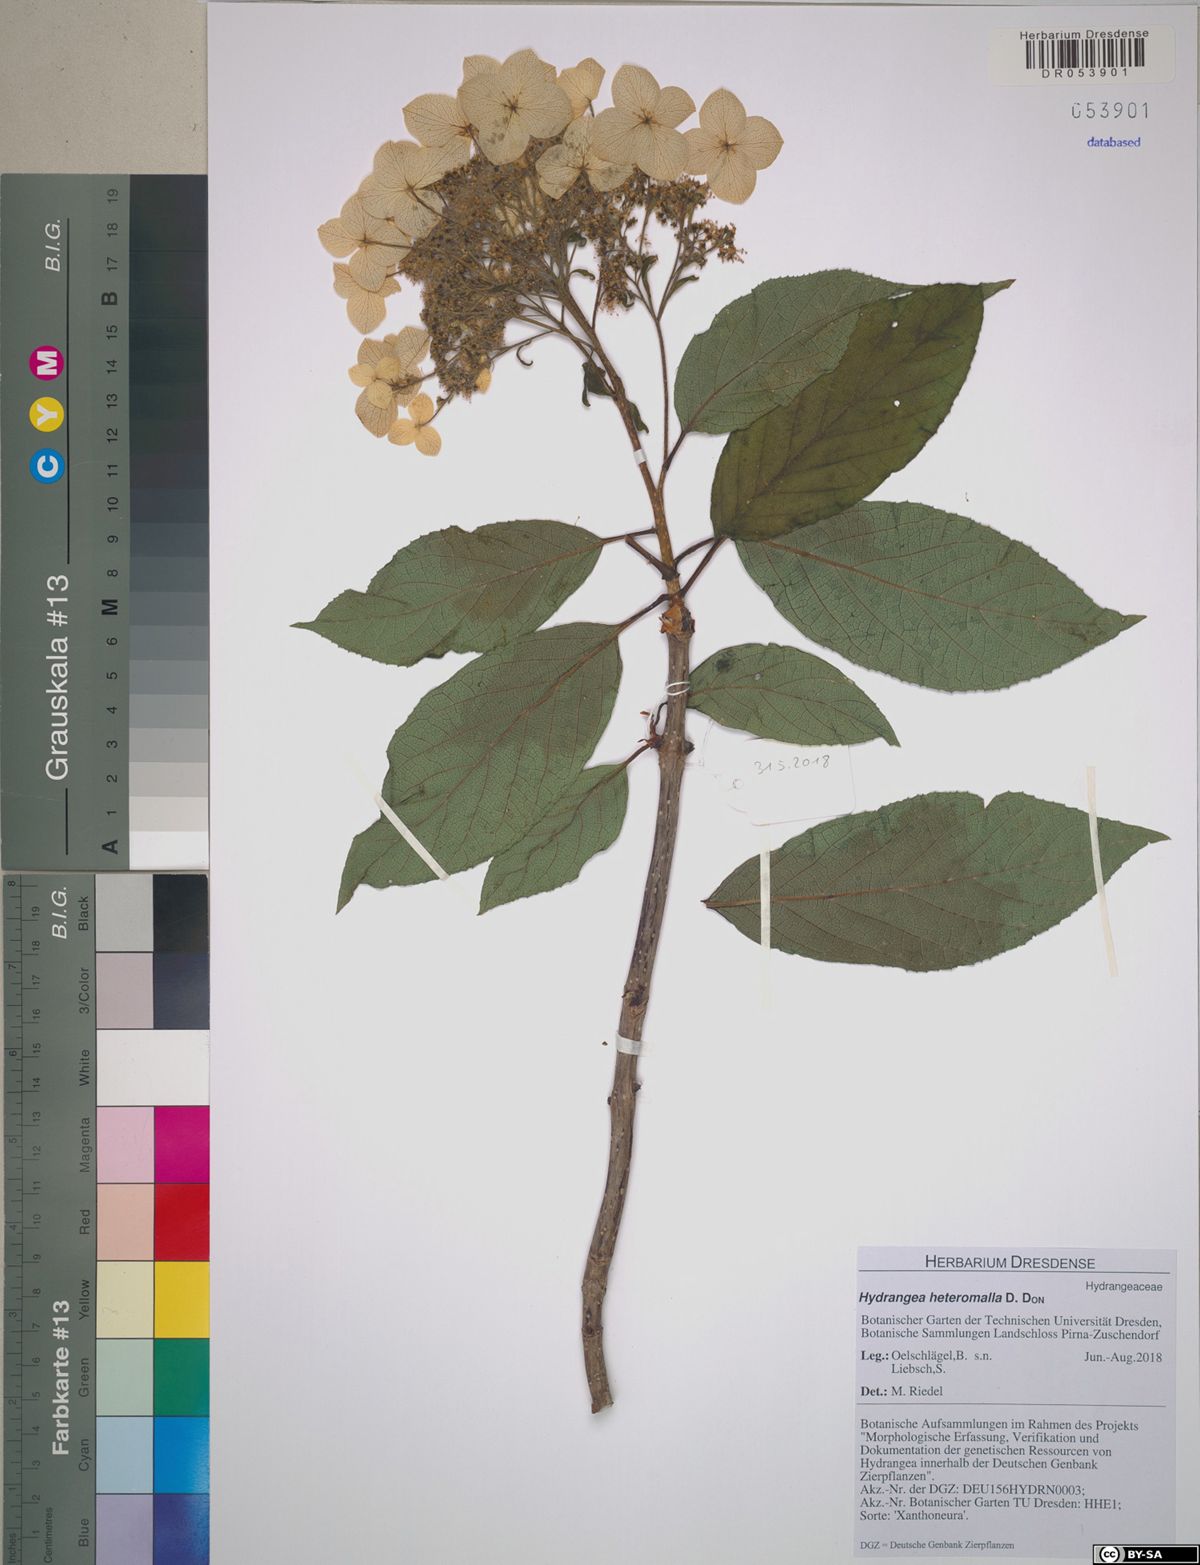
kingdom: Plantae
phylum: Tracheophyta
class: Magnoliopsida
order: Cornales
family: Hydrangeaceae
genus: Hydrangea
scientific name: Hydrangea heteromalla
